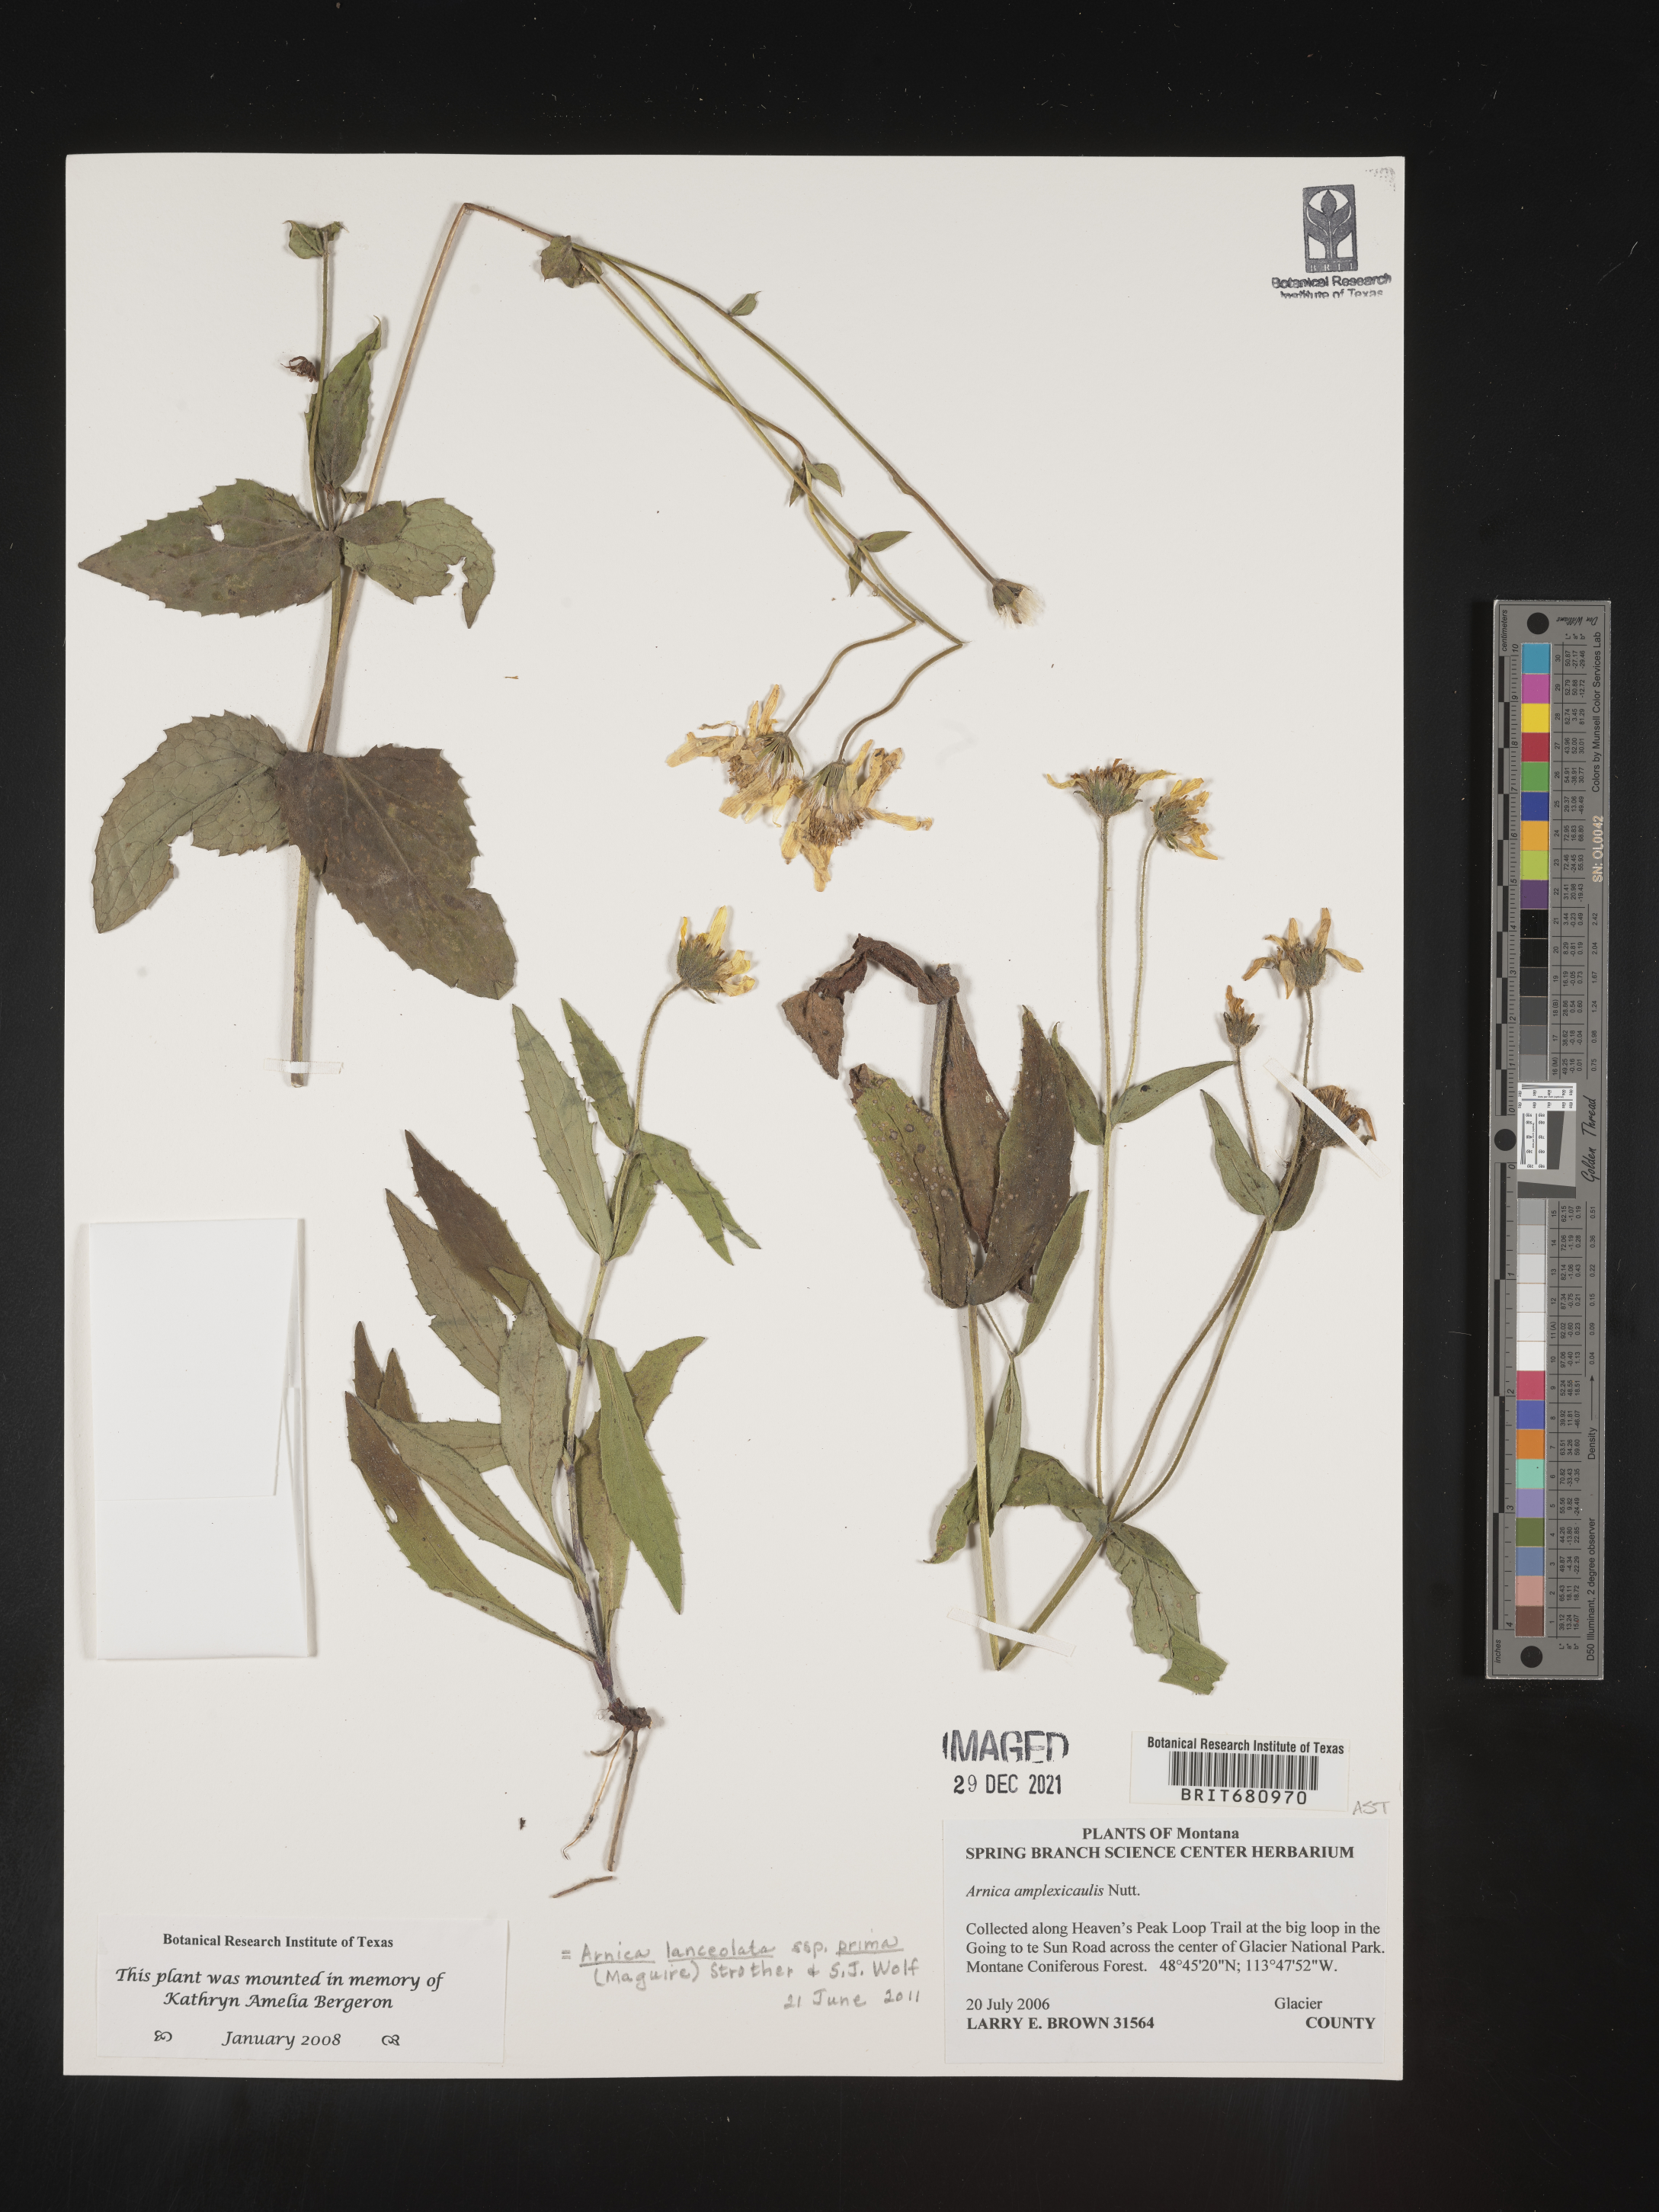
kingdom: Plantae
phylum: Tracheophyta
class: Magnoliopsida
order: Asterales
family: Asteraceae
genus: Arnica
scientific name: Arnica lanceolata
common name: Lance-leaved arnica
